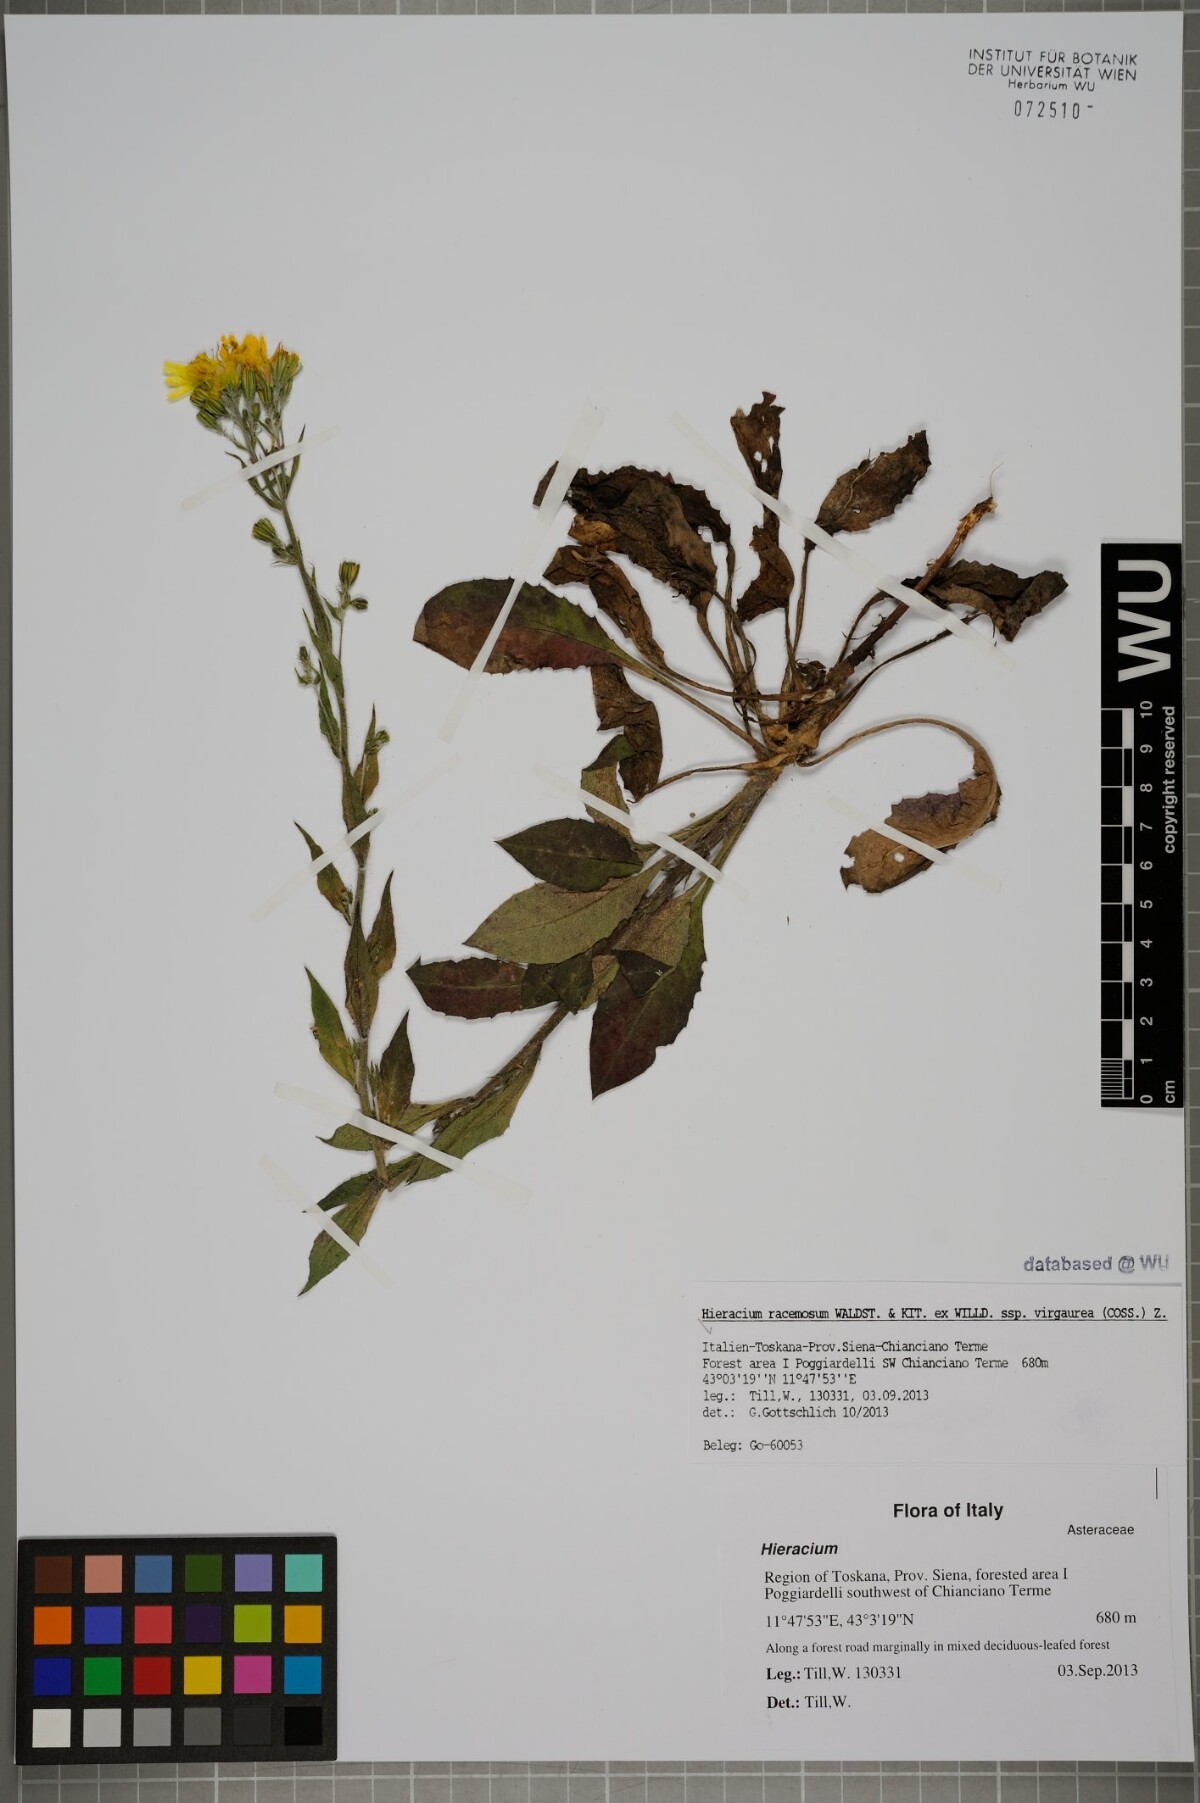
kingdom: Plantae
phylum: Tracheophyta
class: Magnoliopsida
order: Asterales
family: Asteraceae
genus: Hieracium
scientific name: Hieracium racemosum
